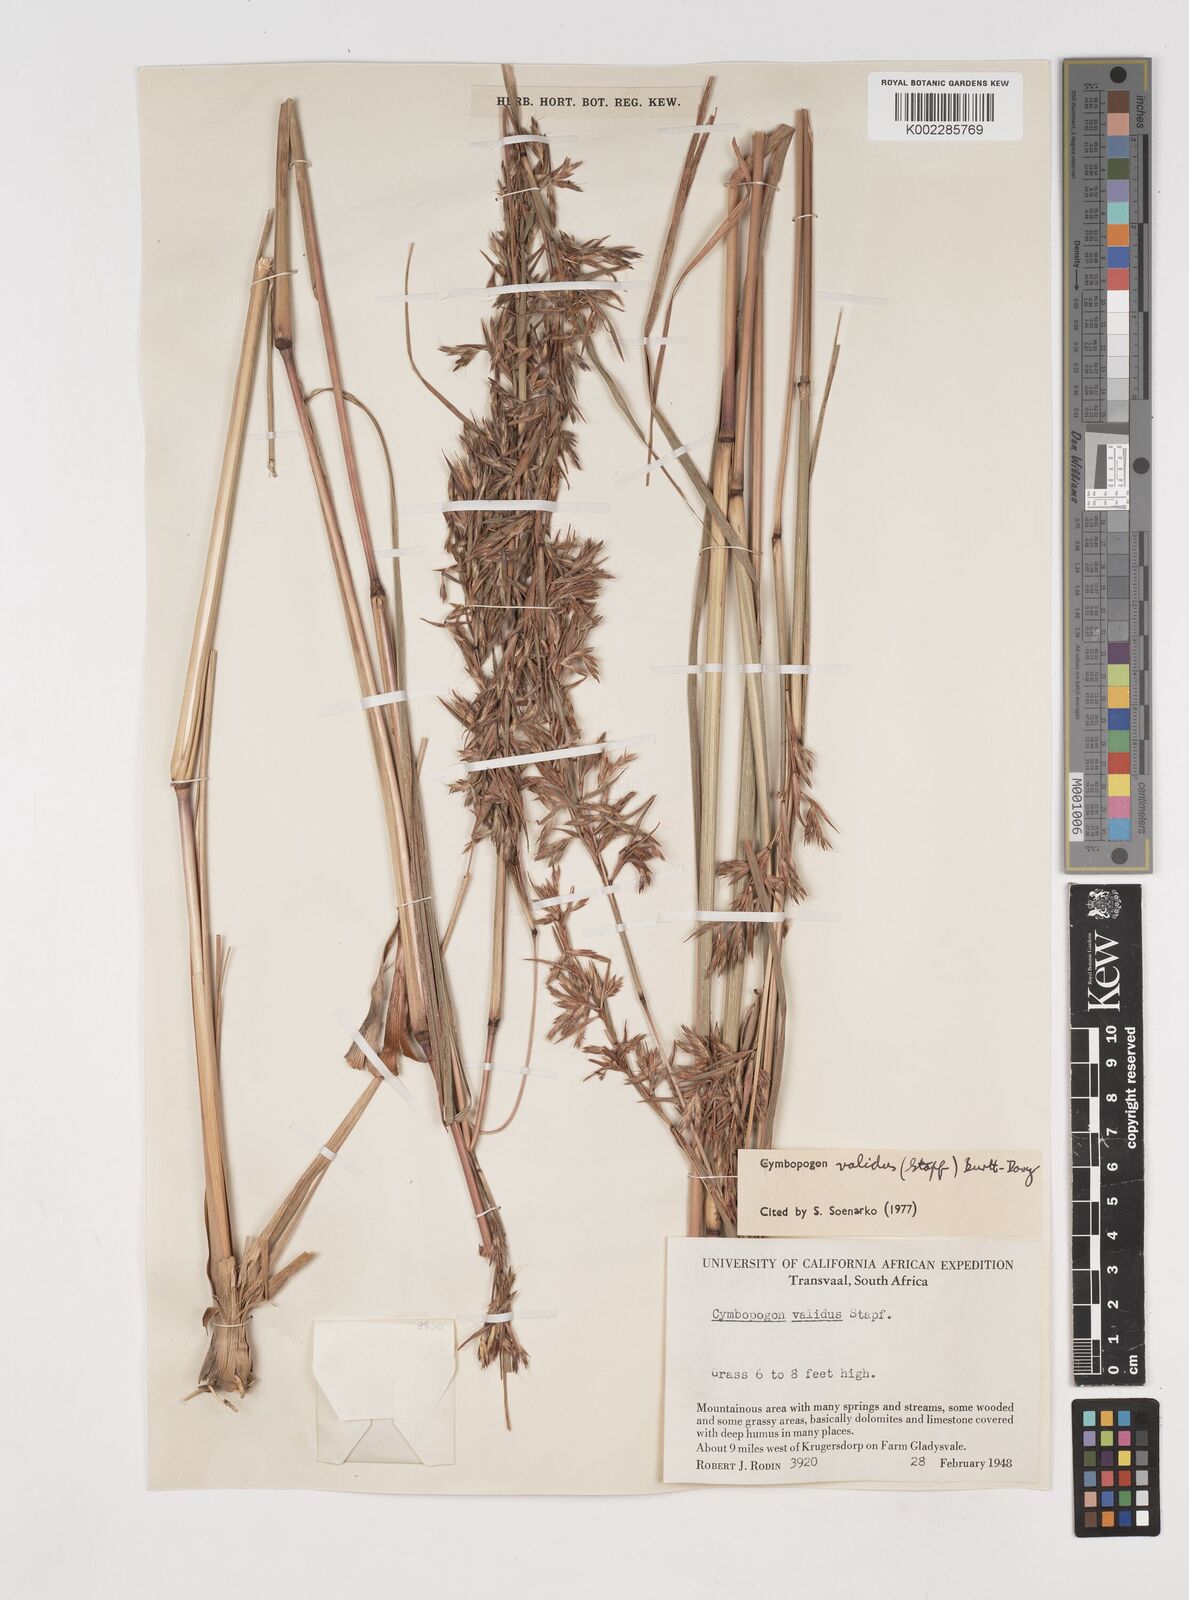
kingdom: Plantae
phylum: Tracheophyta
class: Liliopsida
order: Poales
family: Poaceae
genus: Cymbopogon
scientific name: Cymbopogon nardus
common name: Giant turpentine grass
